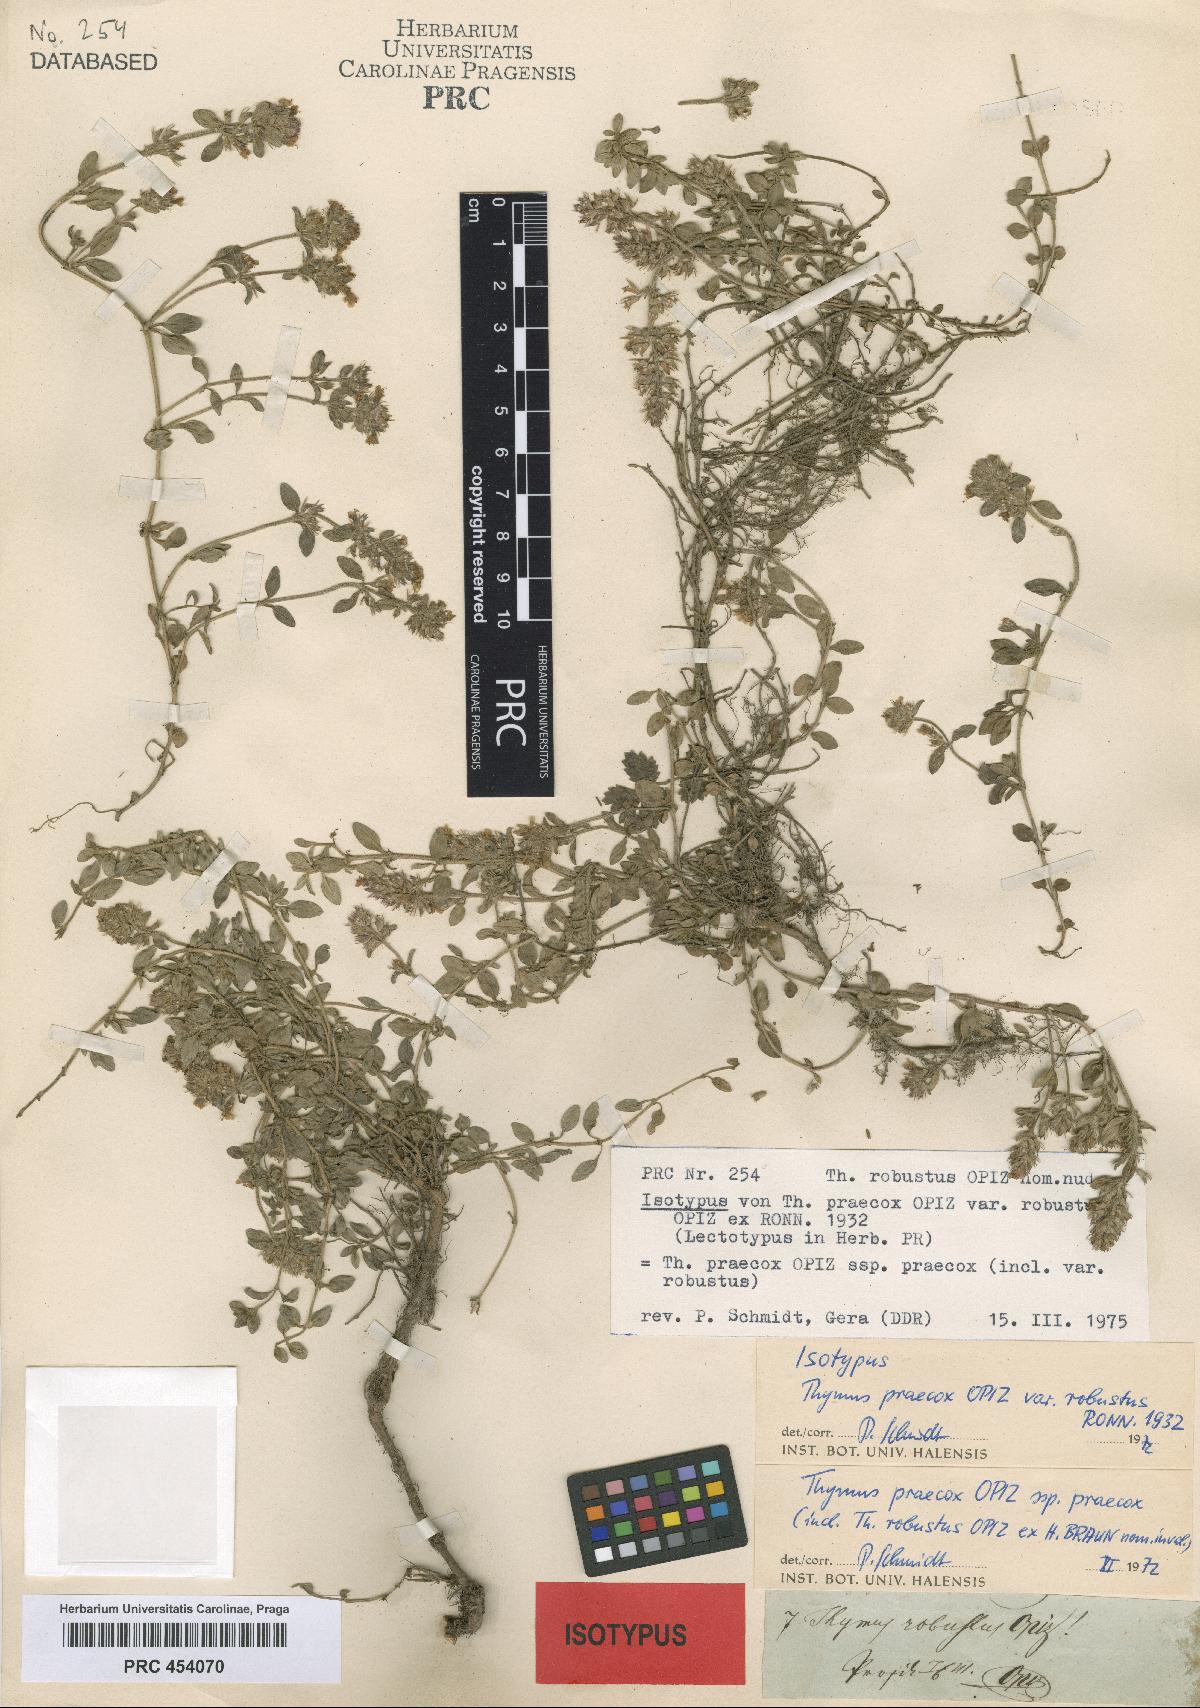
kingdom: Plantae
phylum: Tracheophyta
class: Magnoliopsida
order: Lamiales
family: Lamiaceae
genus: Thymus
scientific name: Thymus praecox
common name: Wild thyme
